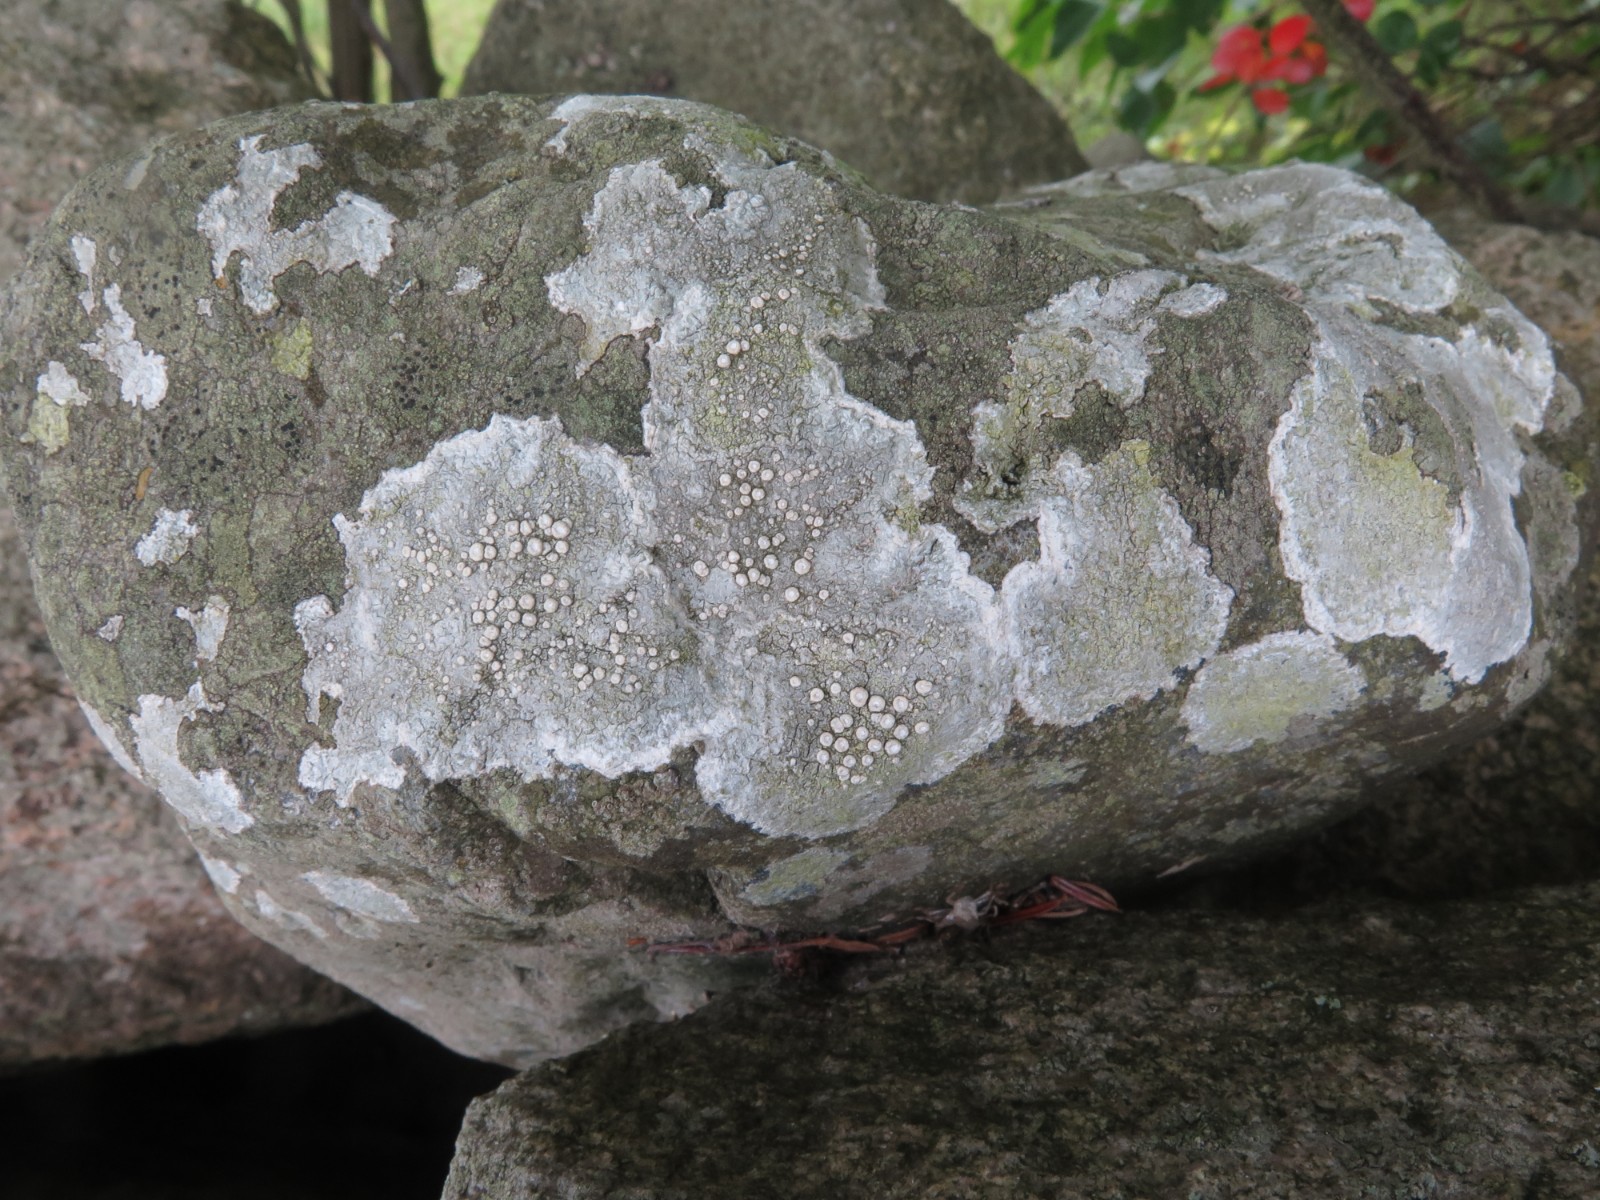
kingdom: Fungi
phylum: Ascomycota
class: Lecanoromycetes
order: Pertusariales
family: Ochrolechiaceae
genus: Ochrolechia
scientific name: Ochrolechia parella
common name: almindelig blegskivelav
